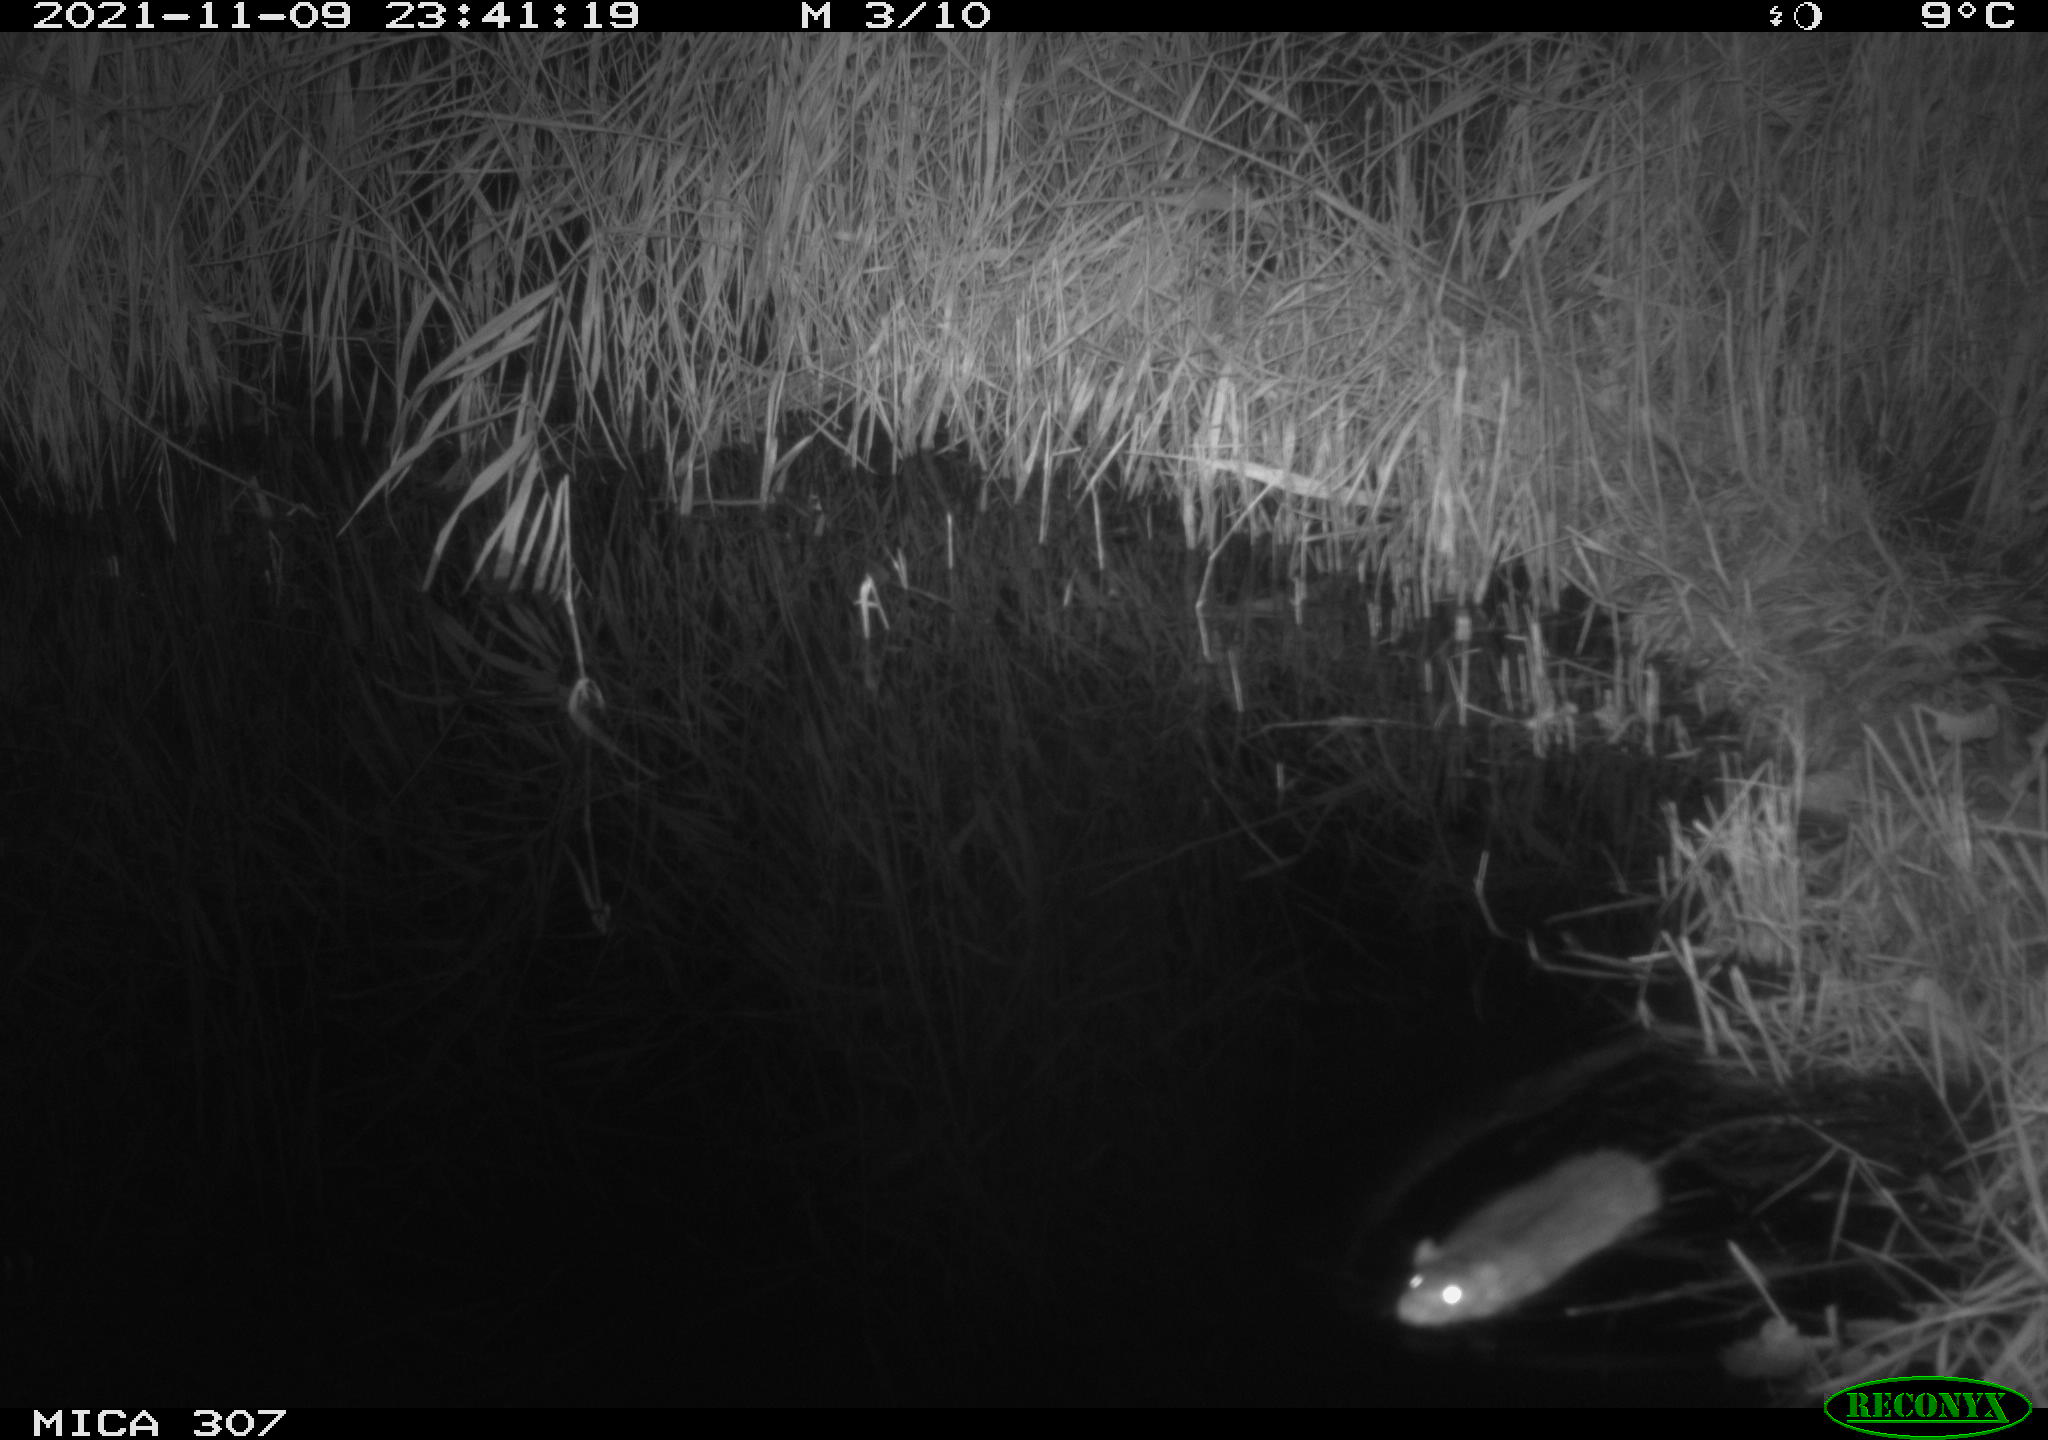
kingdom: Animalia
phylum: Chordata
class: Mammalia
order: Rodentia
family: Muridae
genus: Rattus
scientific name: Rattus norvegicus
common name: Brown rat
